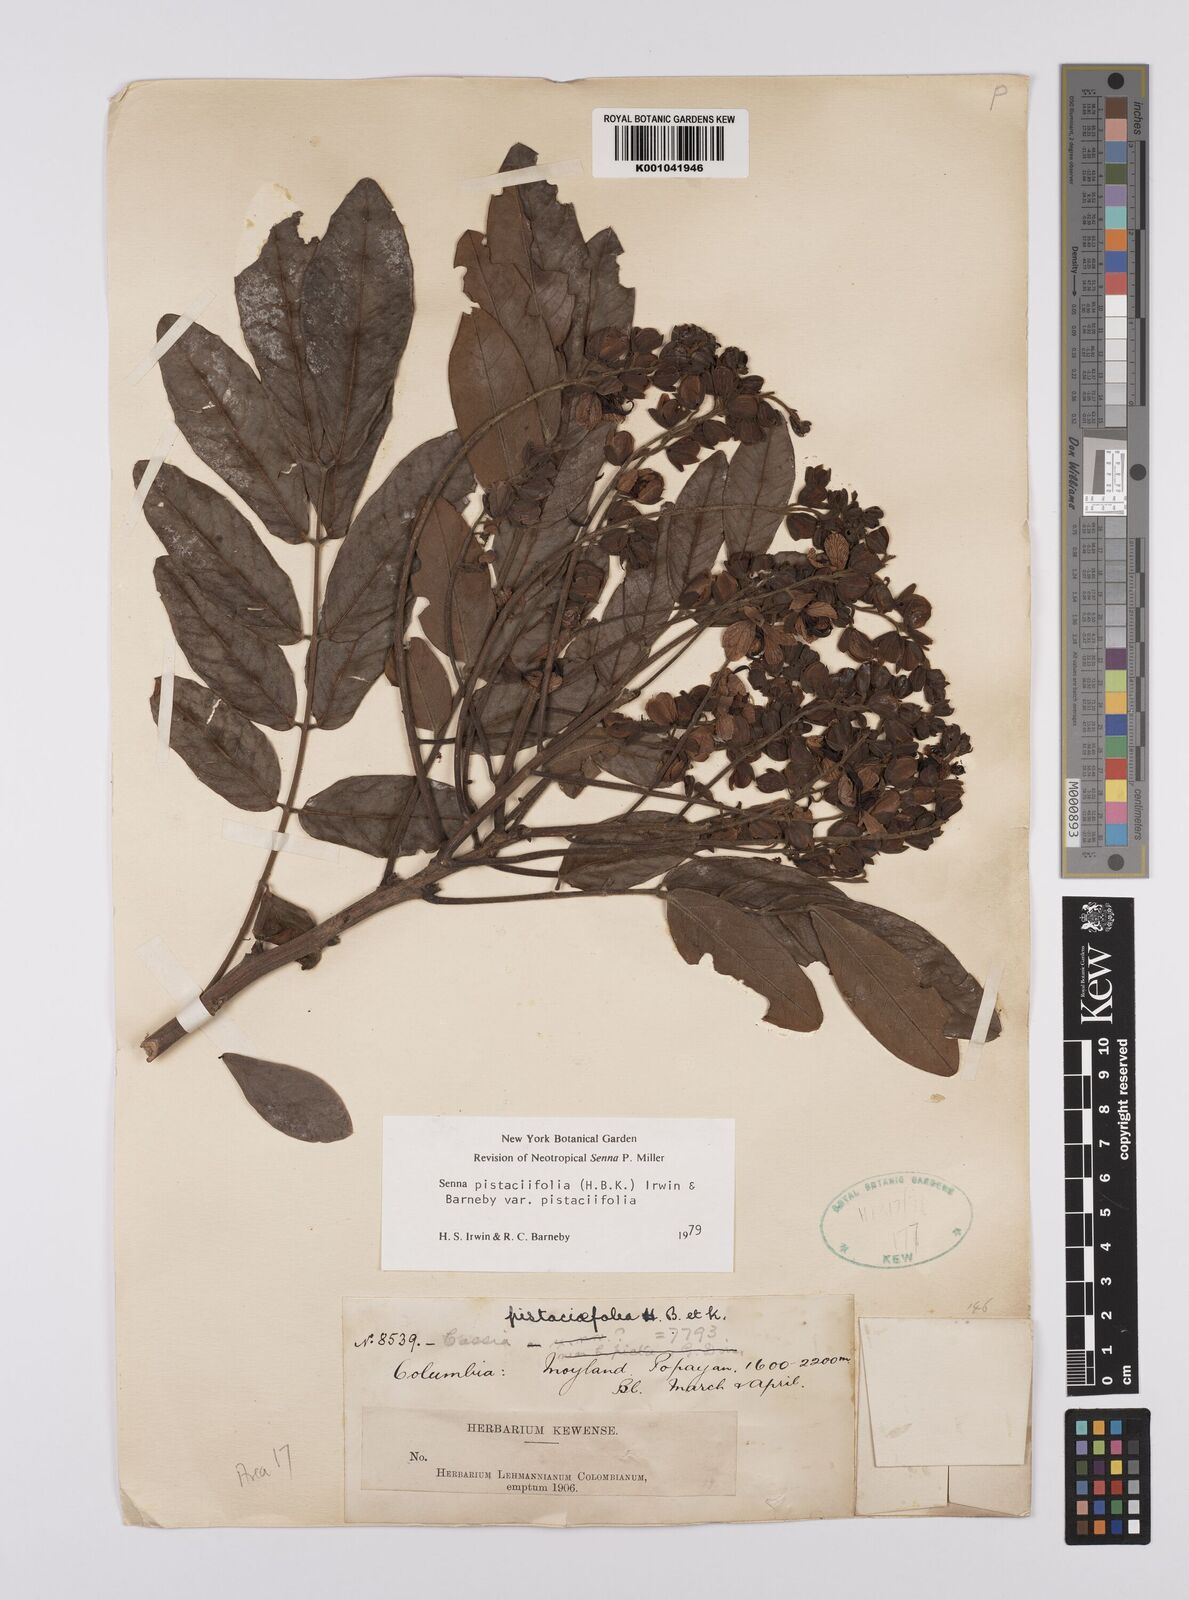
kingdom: Plantae
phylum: Tracheophyta
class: Magnoliopsida
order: Fabales
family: Fabaceae
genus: Senna
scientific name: Senna pistaciifolia
